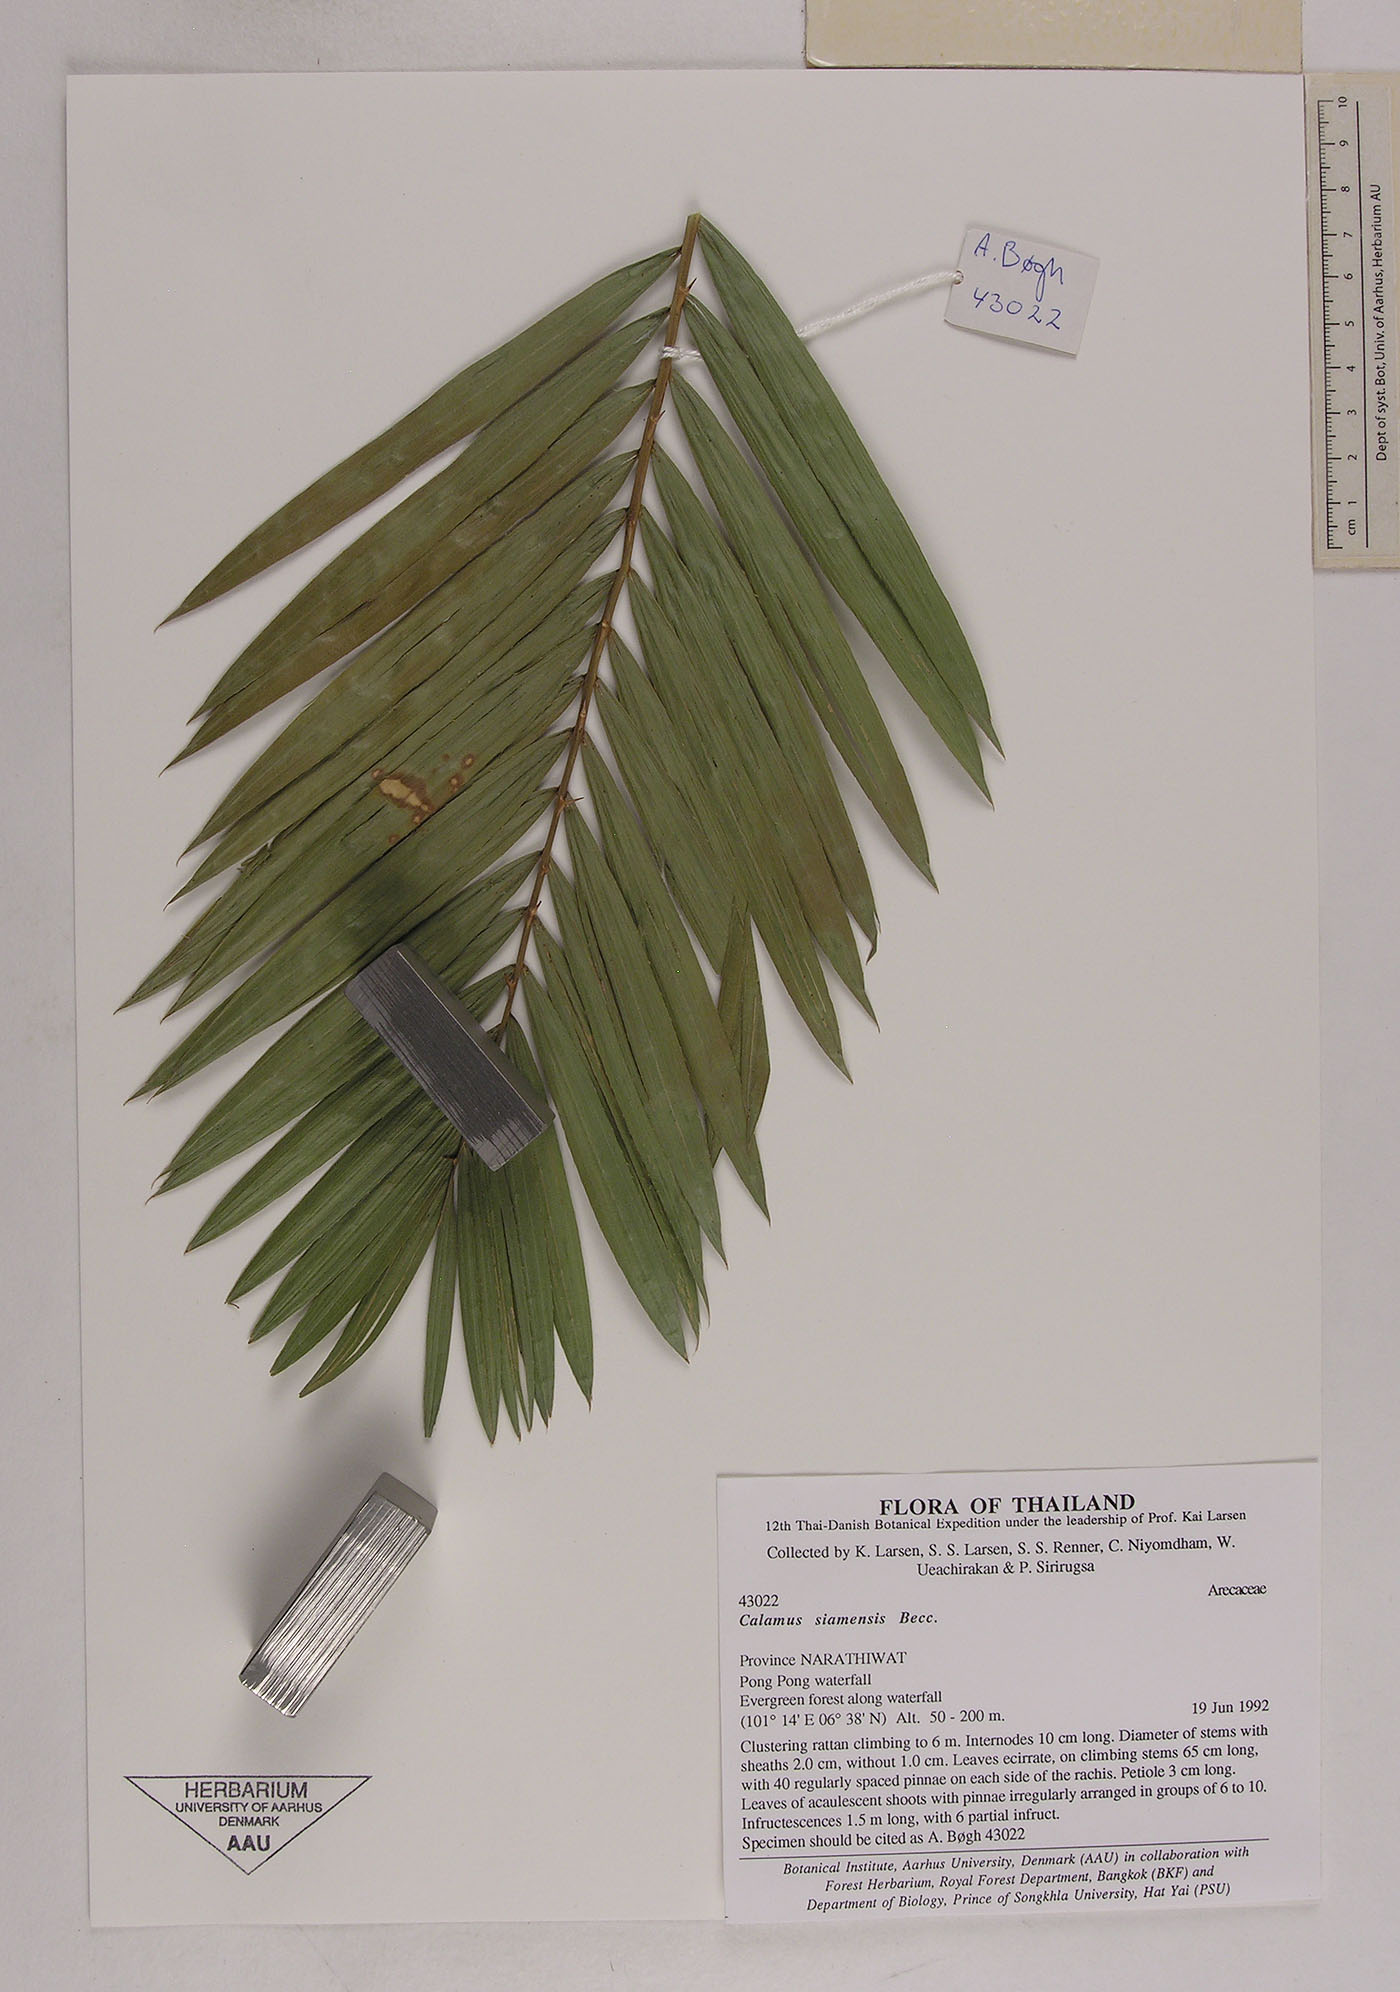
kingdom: Plantae
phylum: Tracheophyta
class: Liliopsida
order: Arecales
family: Arecaceae
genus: Calamus
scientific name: Calamus viminalis
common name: Osier-like rattan palm
